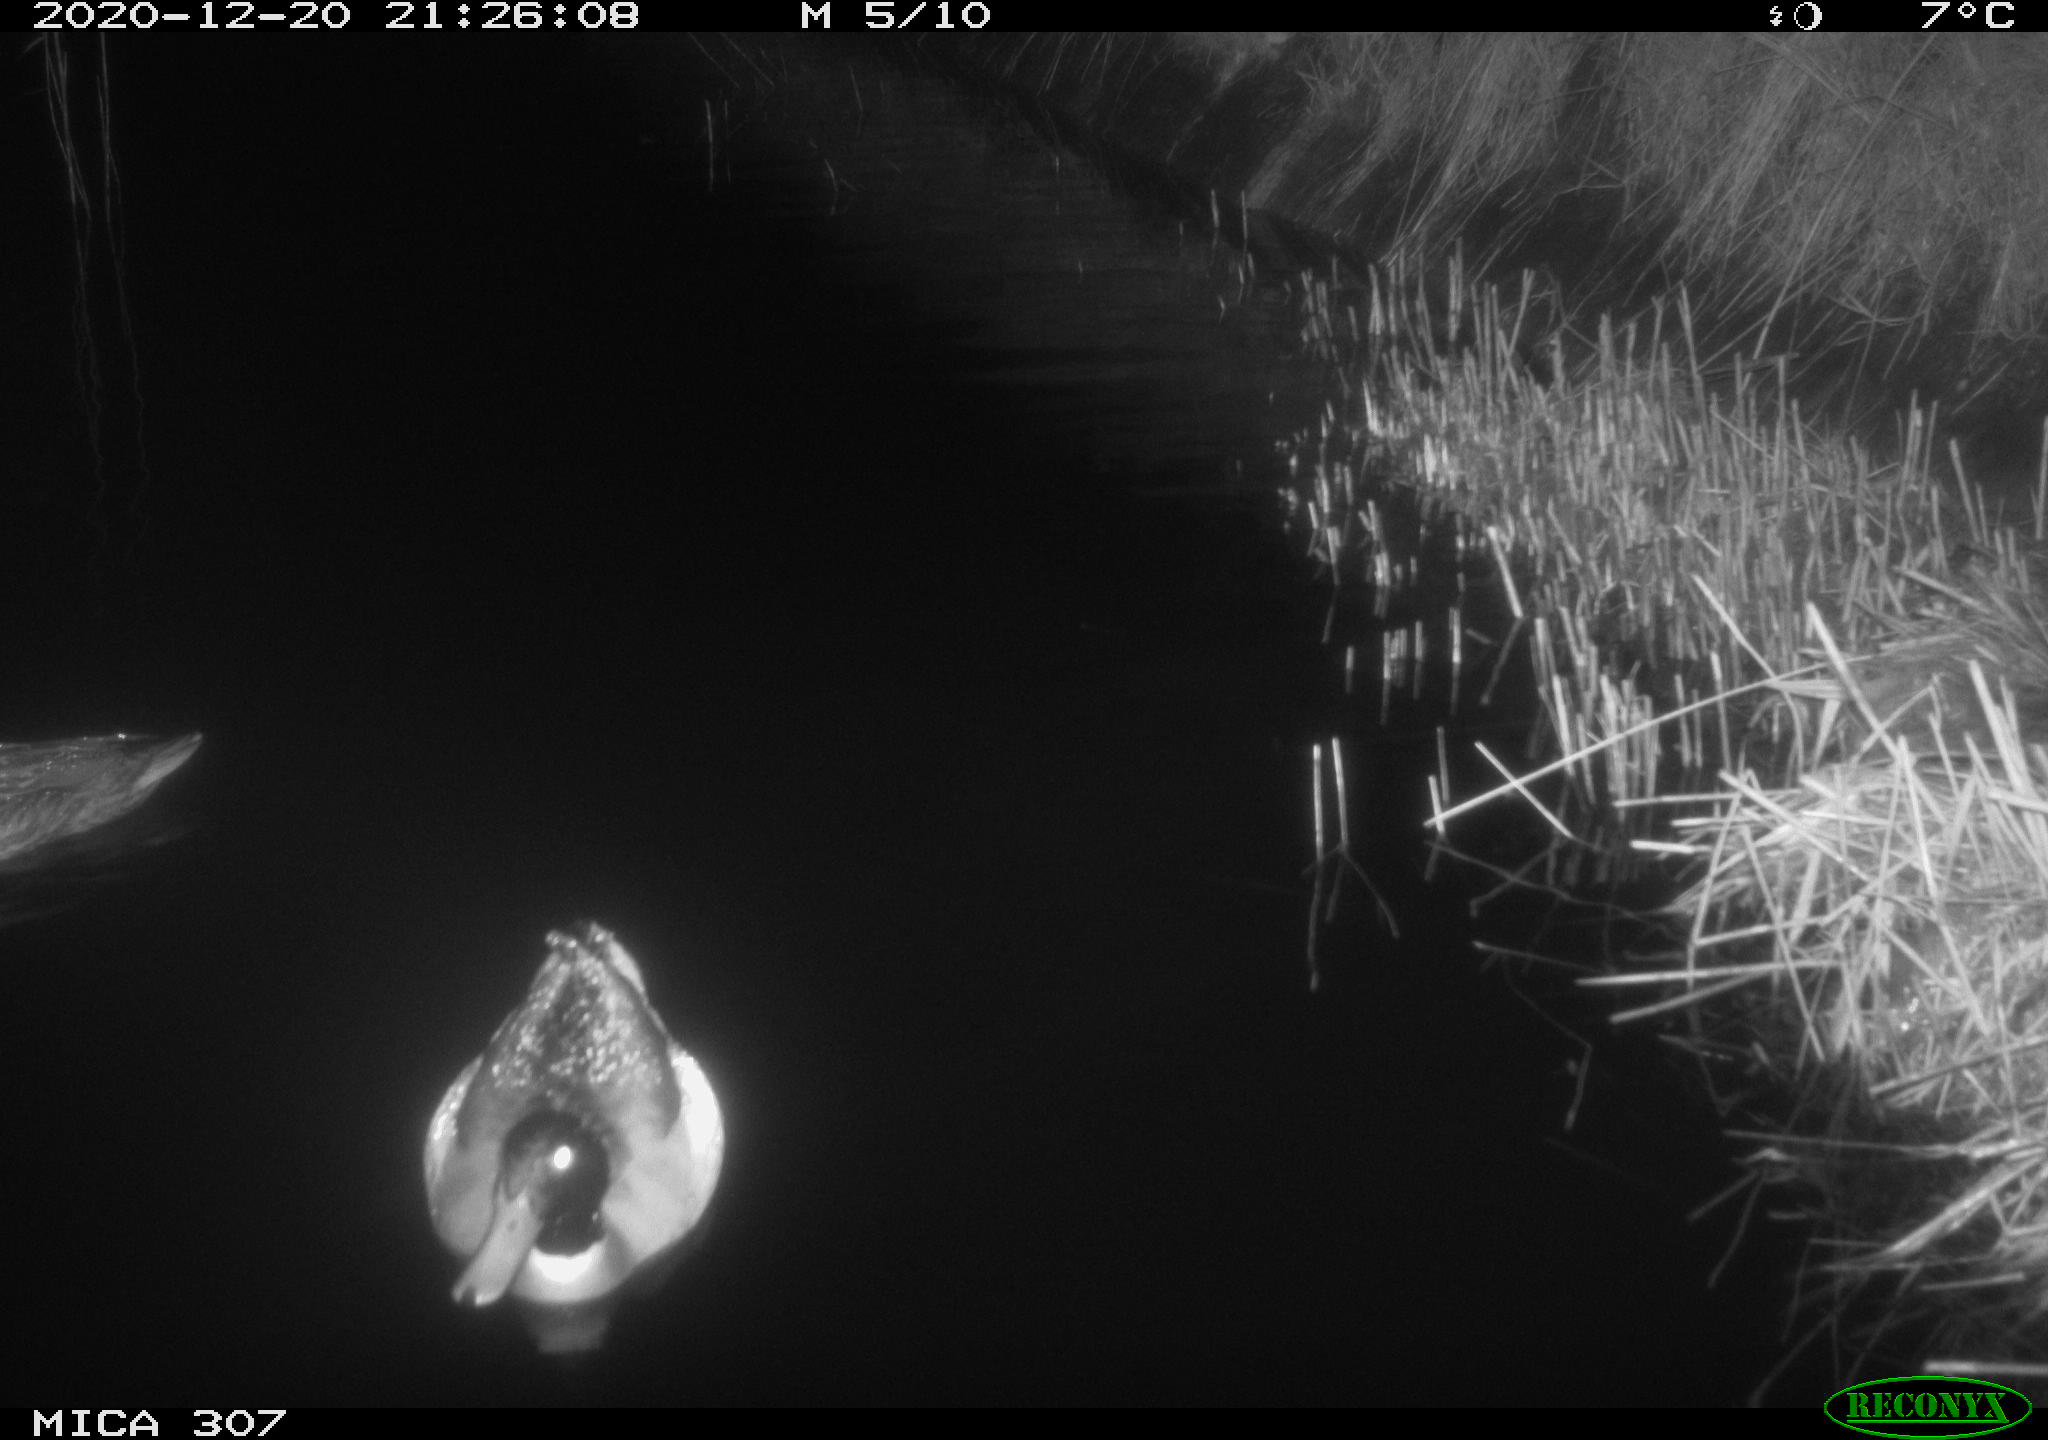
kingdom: Animalia
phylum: Chordata
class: Aves
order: Anseriformes
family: Anatidae
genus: Anas
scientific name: Anas platyrhynchos
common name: Mallard
